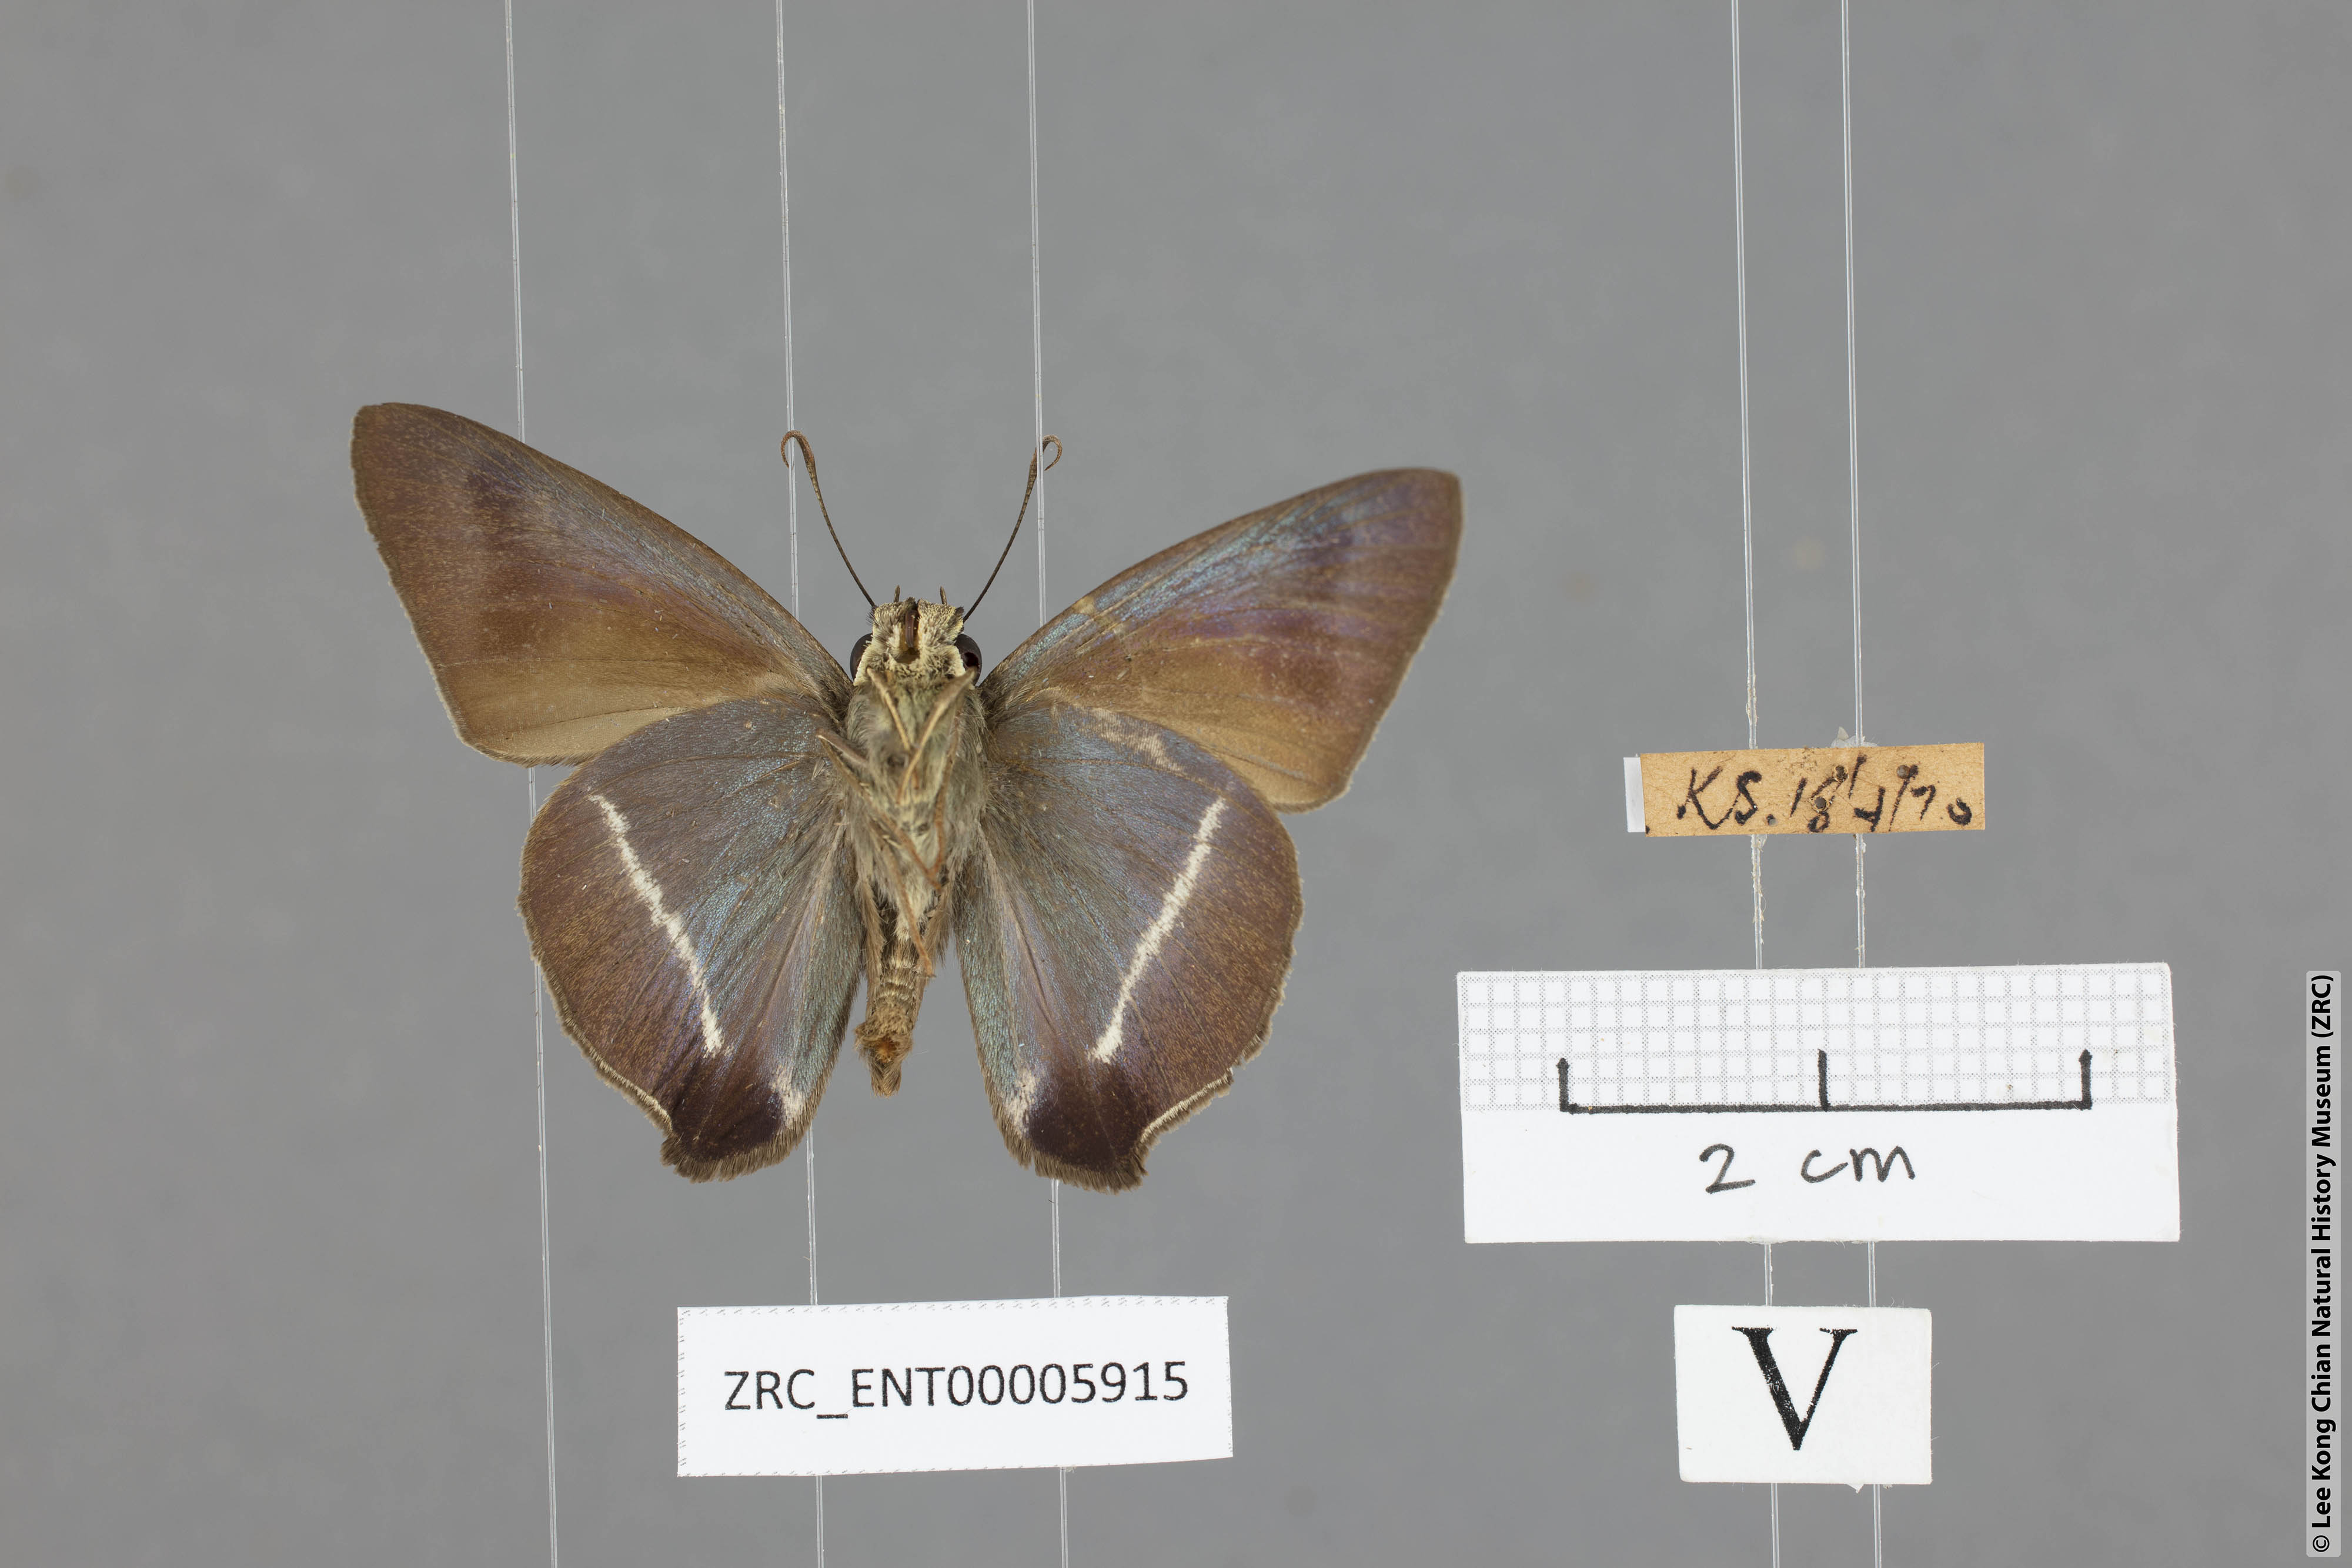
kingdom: Animalia
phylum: Arthropoda
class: Insecta
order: Lepidoptera
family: Hesperiidae
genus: Hasora
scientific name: Hasora taminatus
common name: White banded awl
